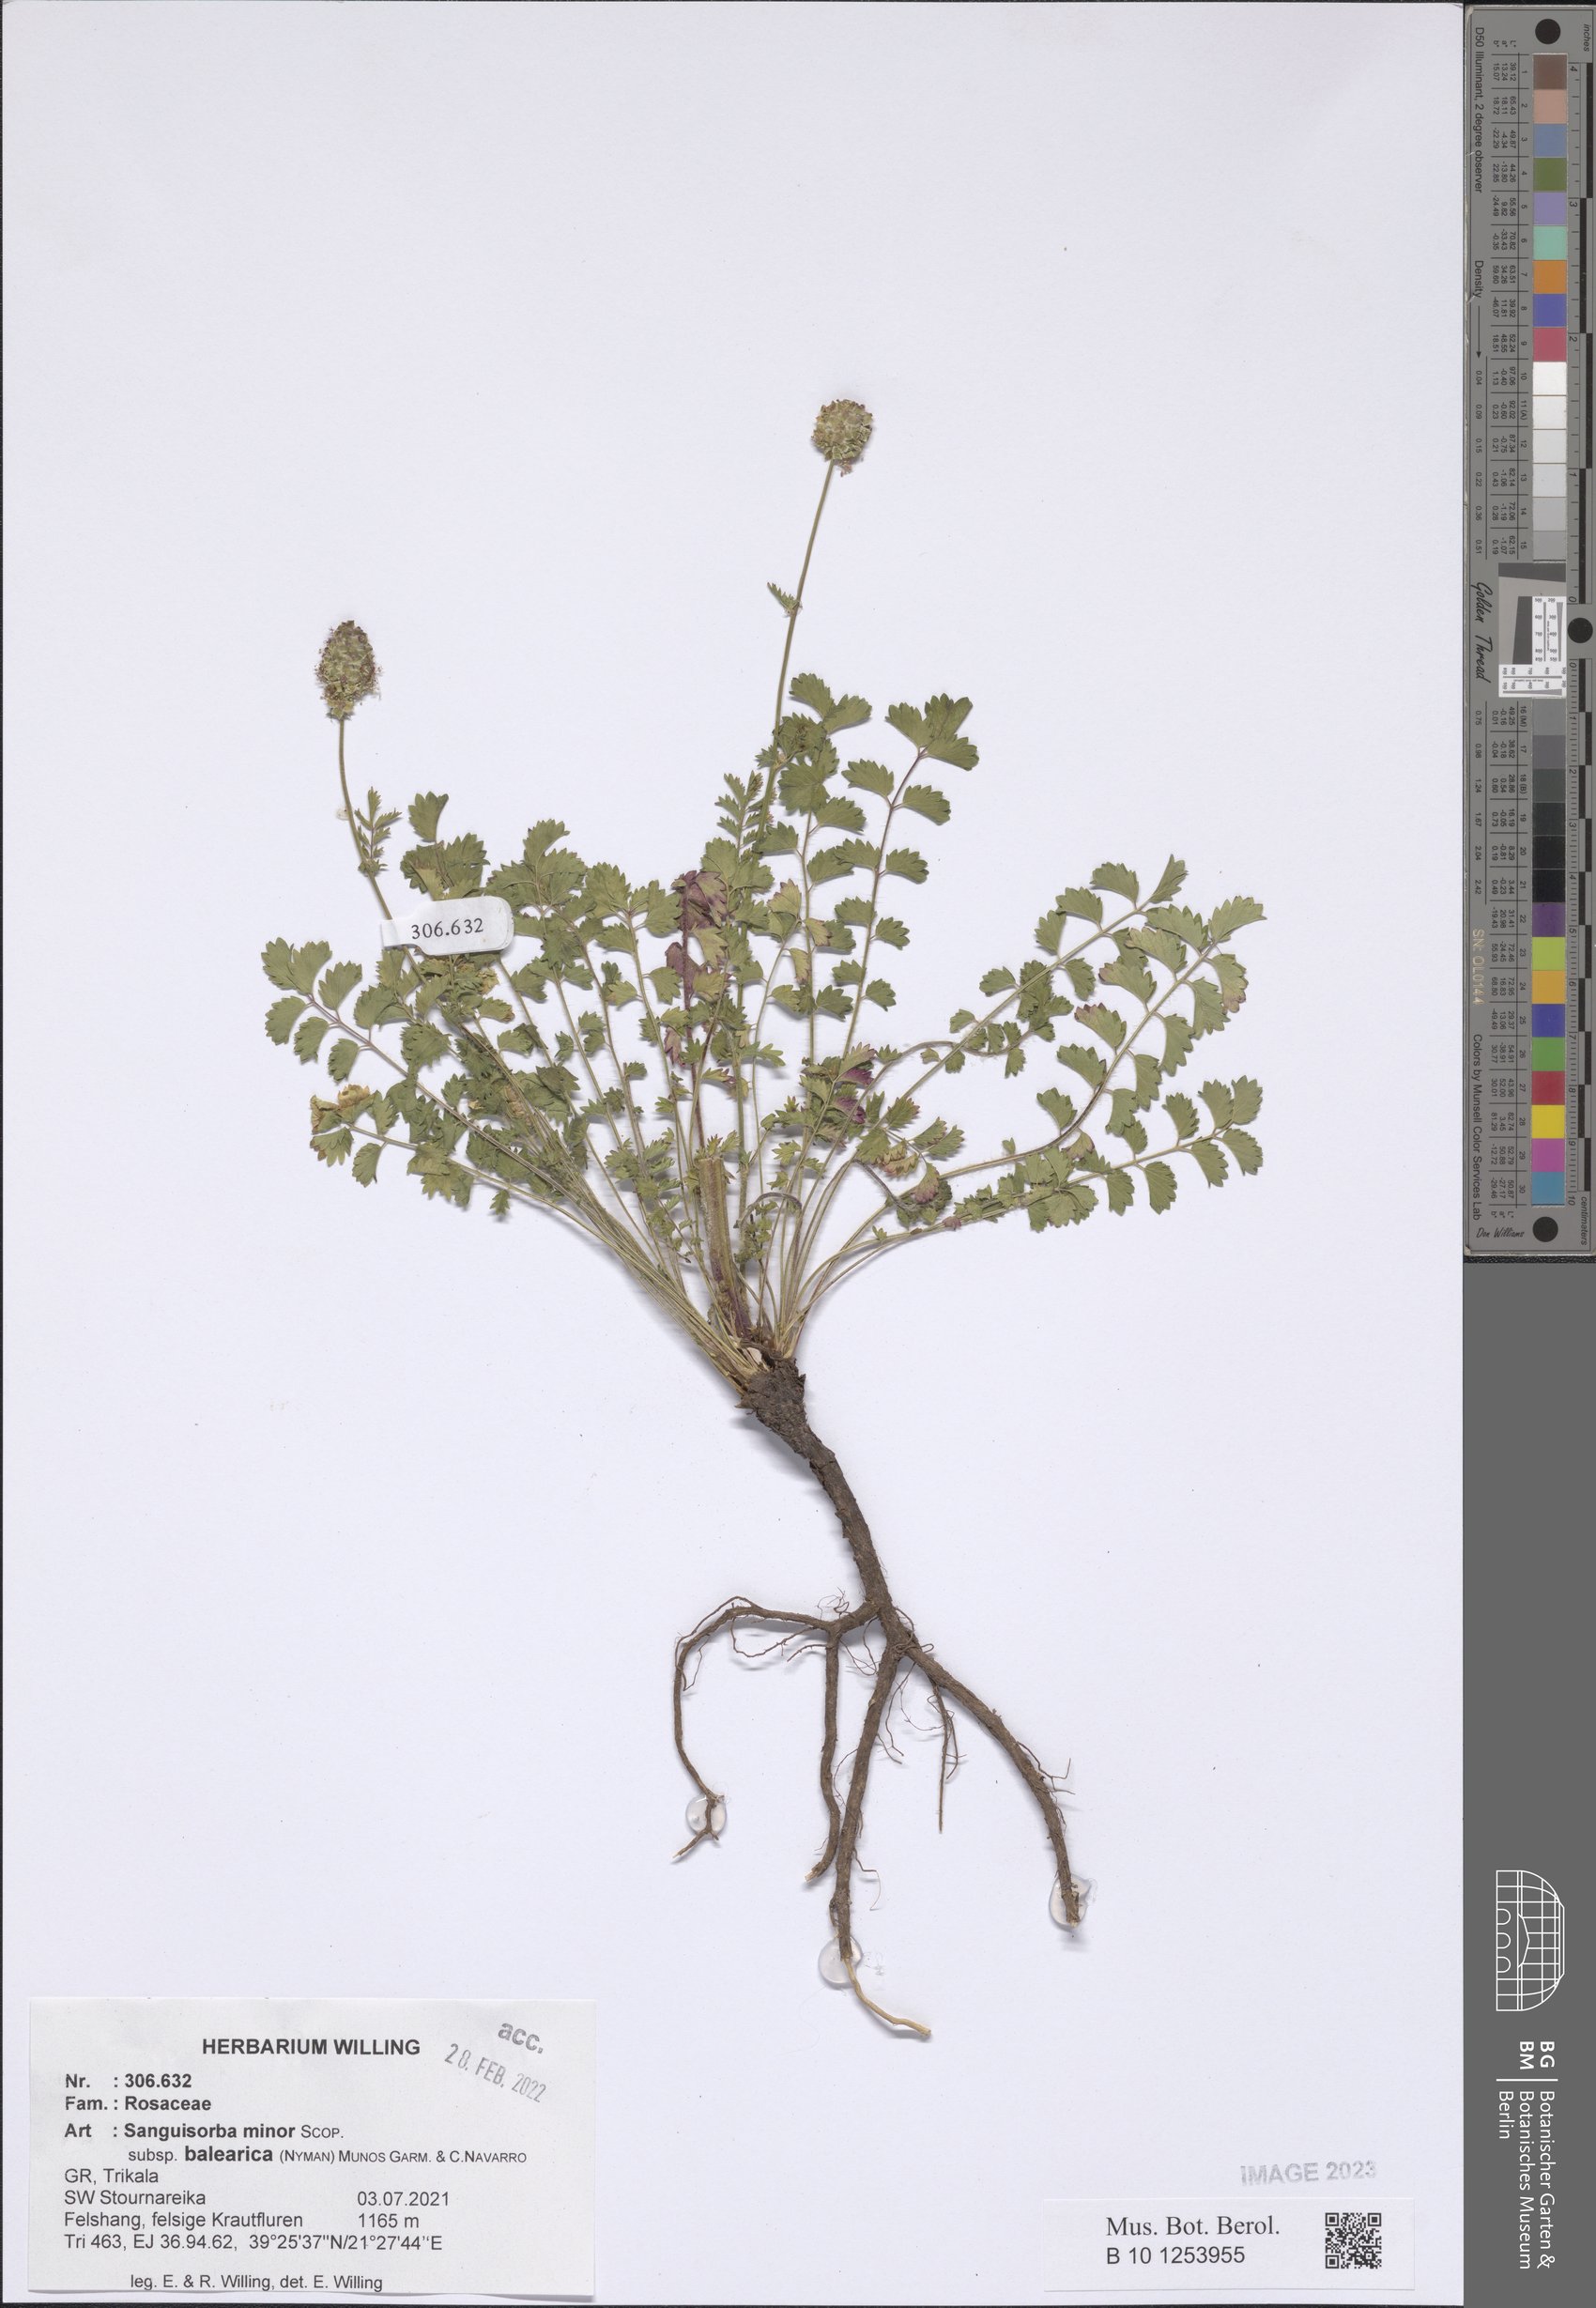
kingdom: Plantae
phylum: Tracheophyta
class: Magnoliopsida
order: Rosales
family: Rosaceae
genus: Poterium
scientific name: Poterium sanguisorba
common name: Salad burnet
